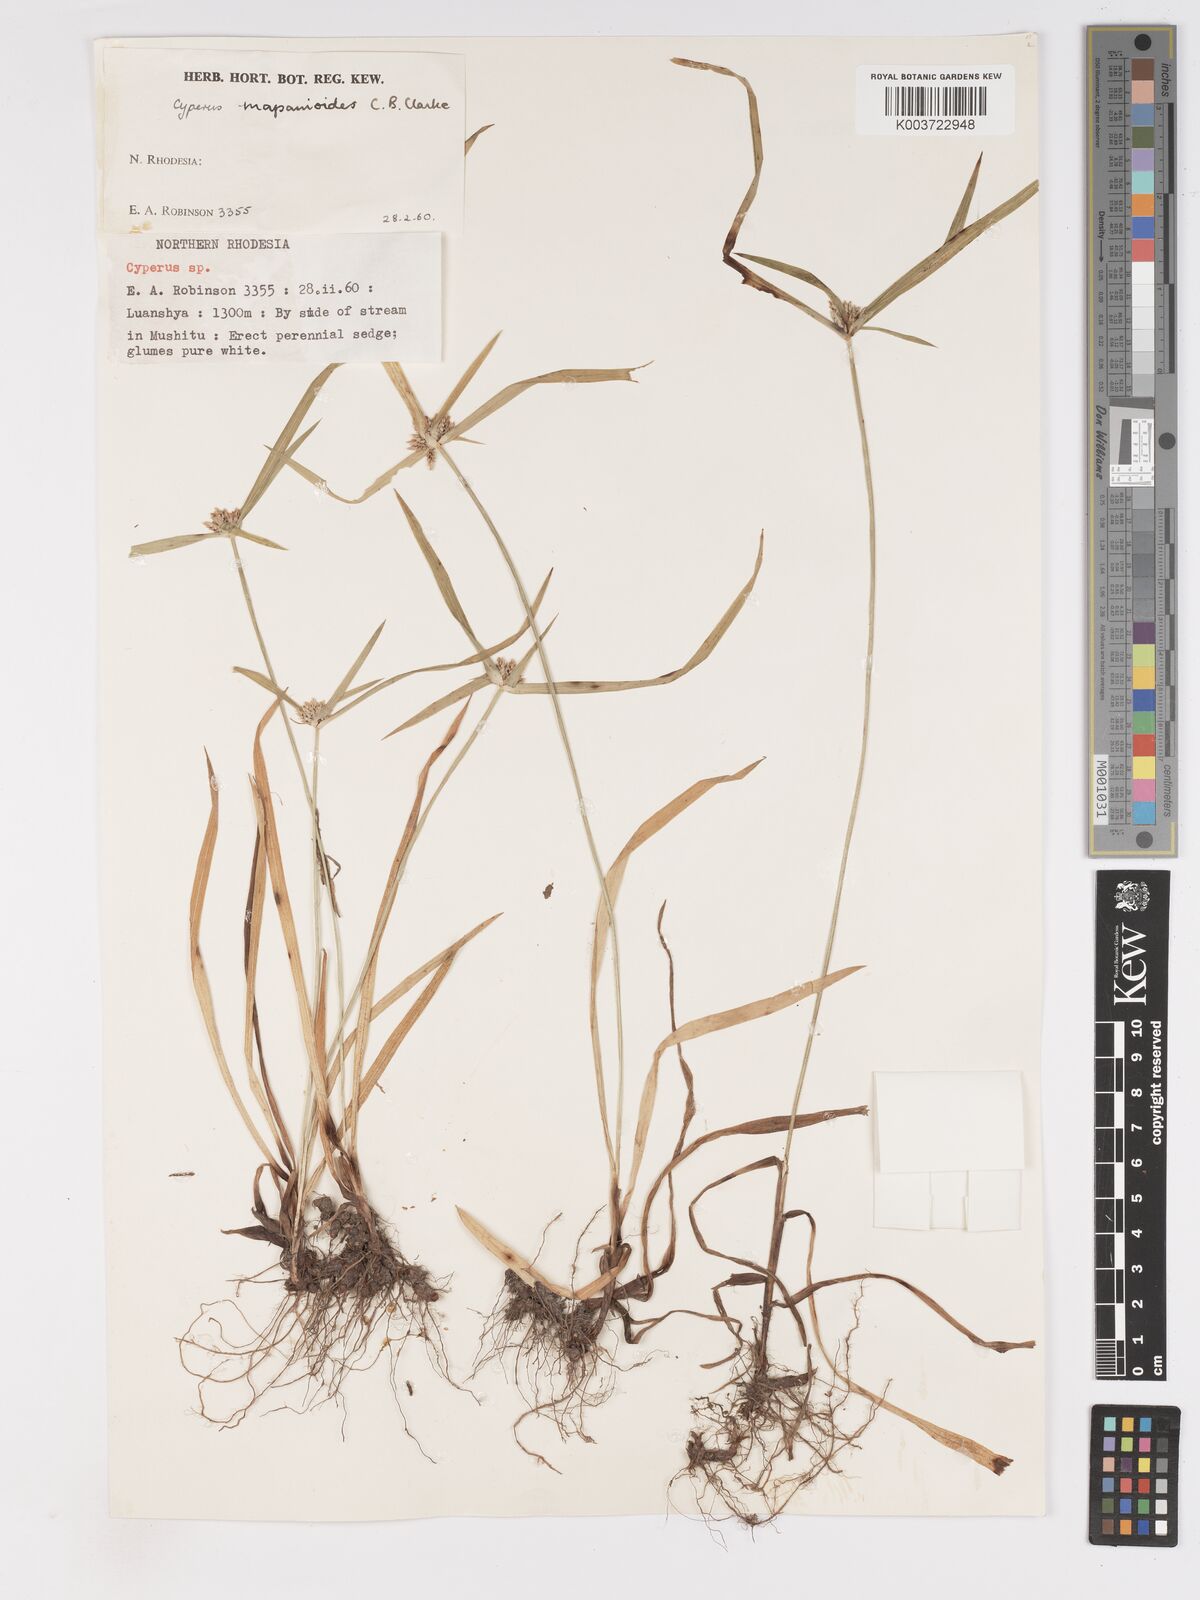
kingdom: Plantae
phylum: Tracheophyta
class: Liliopsida
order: Poales
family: Cyperaceae
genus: Cyperus
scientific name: Cyperus mapanioides
